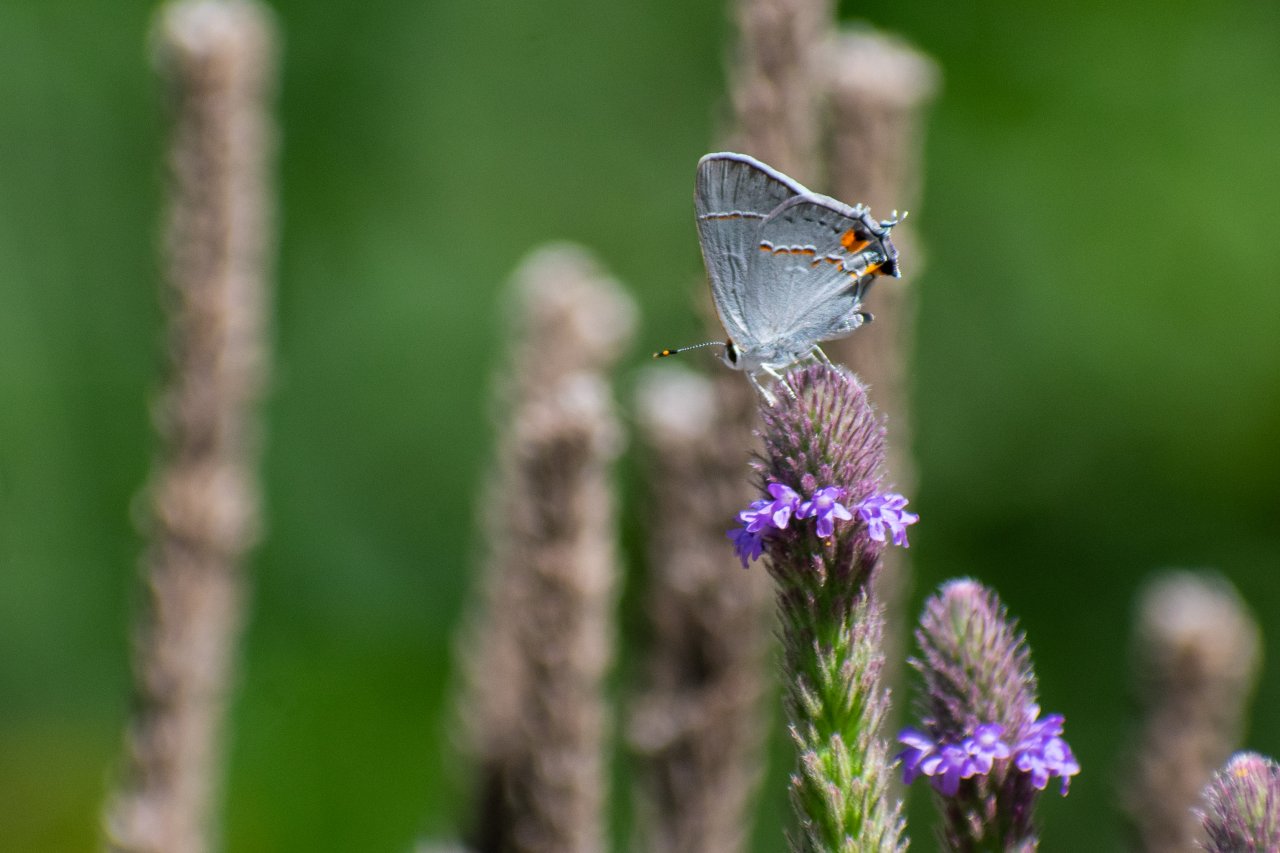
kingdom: Animalia
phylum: Arthropoda
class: Insecta
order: Lepidoptera
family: Lycaenidae
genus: Strymon
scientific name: Strymon melinus
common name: Gray Hairstreak
